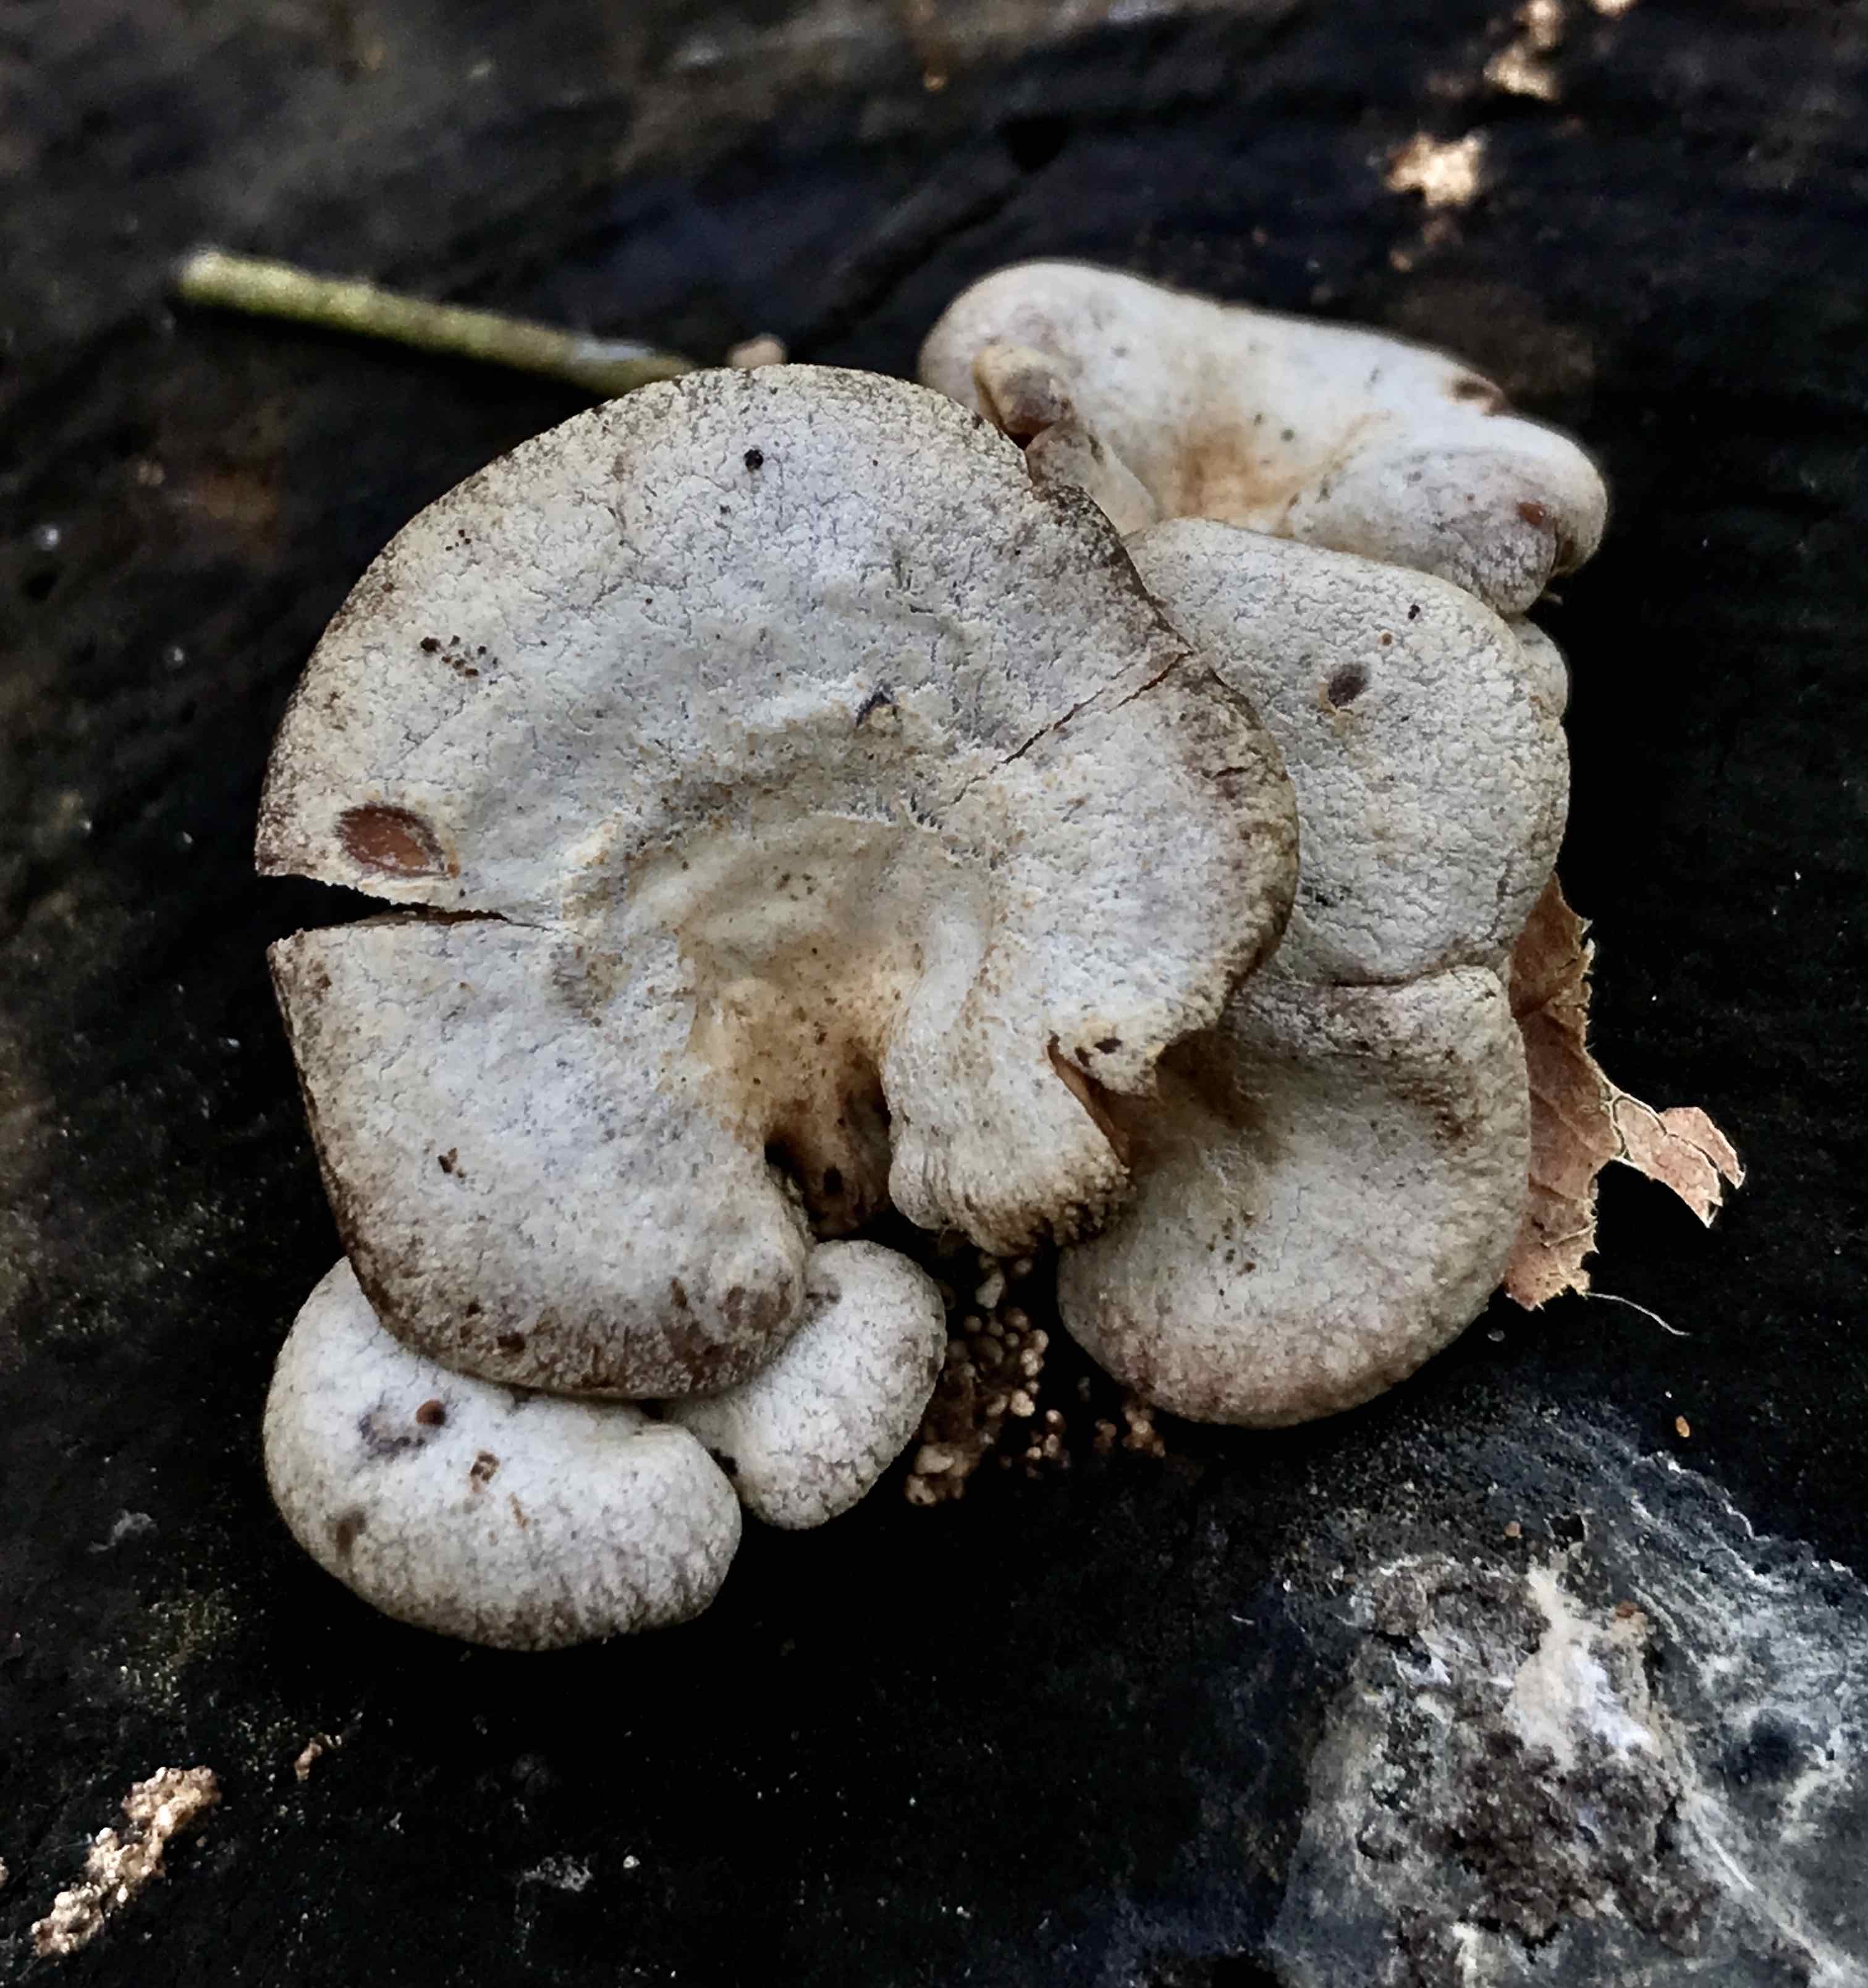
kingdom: Fungi
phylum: Basidiomycota
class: Agaricomycetes
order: Agaricales
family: Mycenaceae
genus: Panellus
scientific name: Panellus stipticus
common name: kliddet epaulethat
